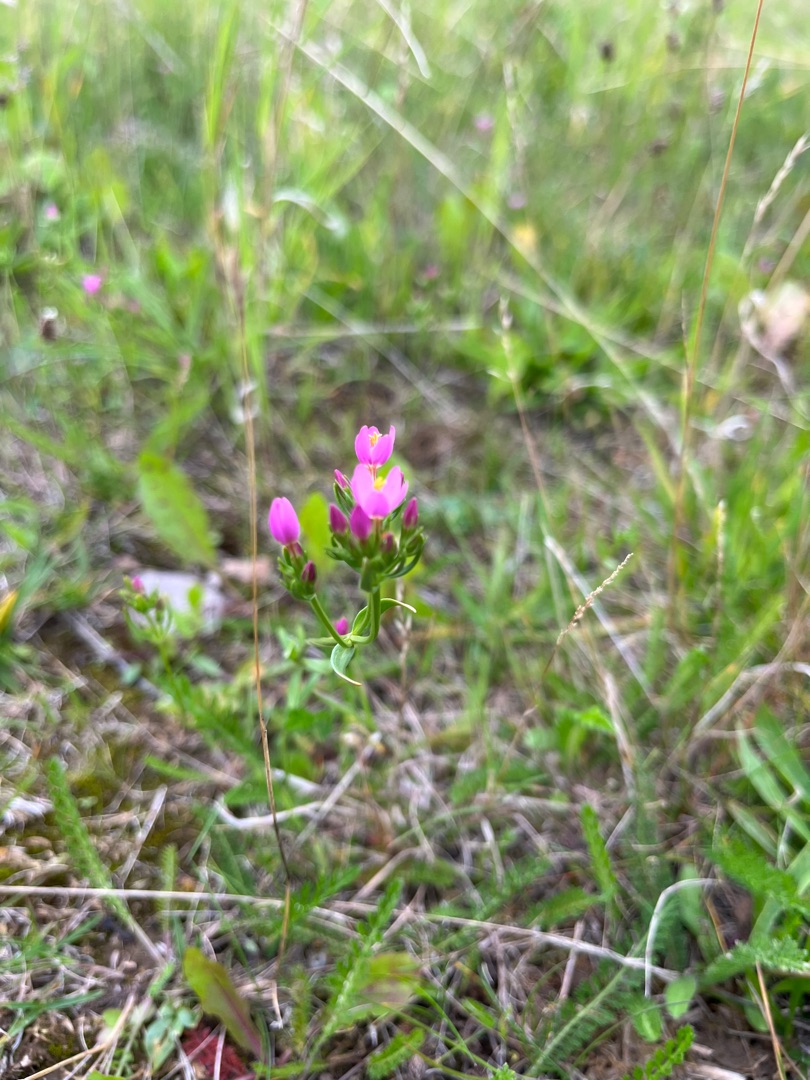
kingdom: Plantae
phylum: Tracheophyta
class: Magnoliopsida
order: Gentianales
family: Gentianaceae
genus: Centaurium
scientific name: Centaurium erythraea
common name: Mark-tusindgylden
